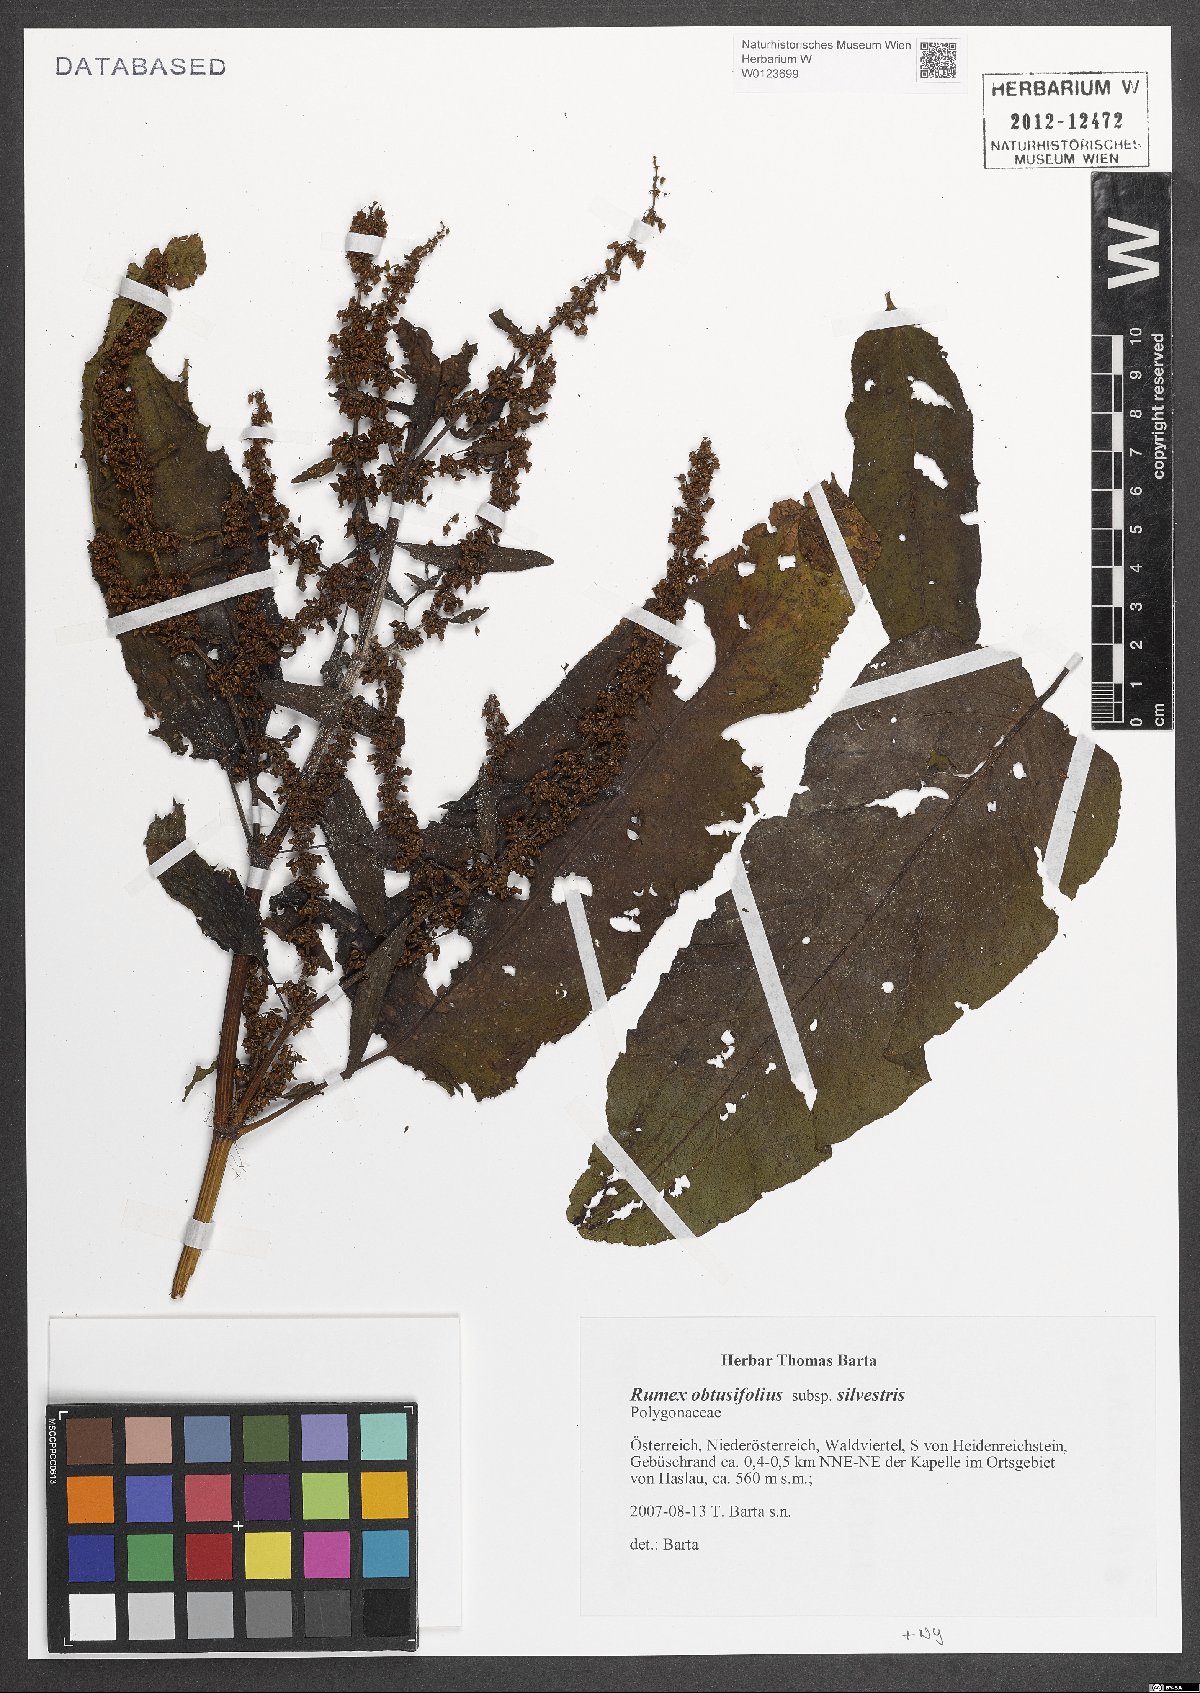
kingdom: Plantae
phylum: Tracheophyta
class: Magnoliopsida
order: Caryophyllales
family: Polygonaceae
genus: Rumex
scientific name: Rumex obtusifolius
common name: Bitter dock
